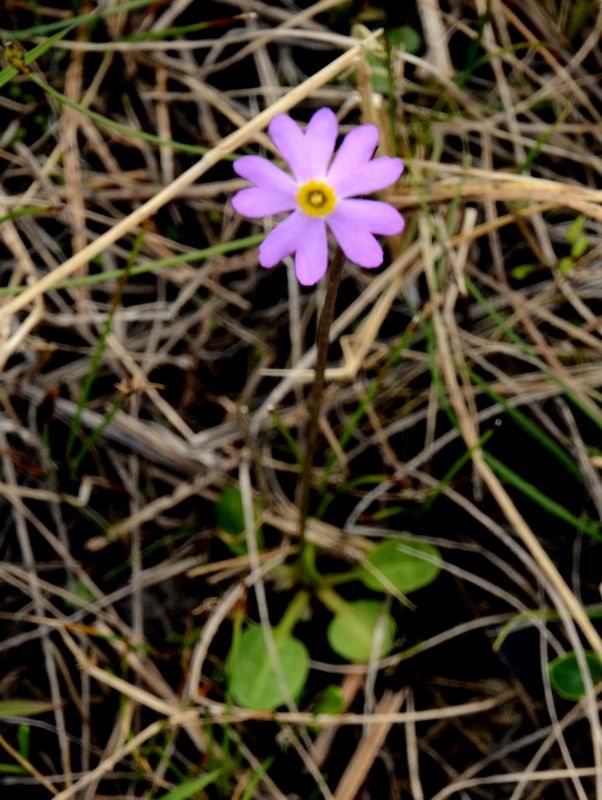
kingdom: Plantae
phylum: Tracheophyta
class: Magnoliopsida
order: Ericales
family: Primulaceae
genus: Primula
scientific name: Primula nutans
